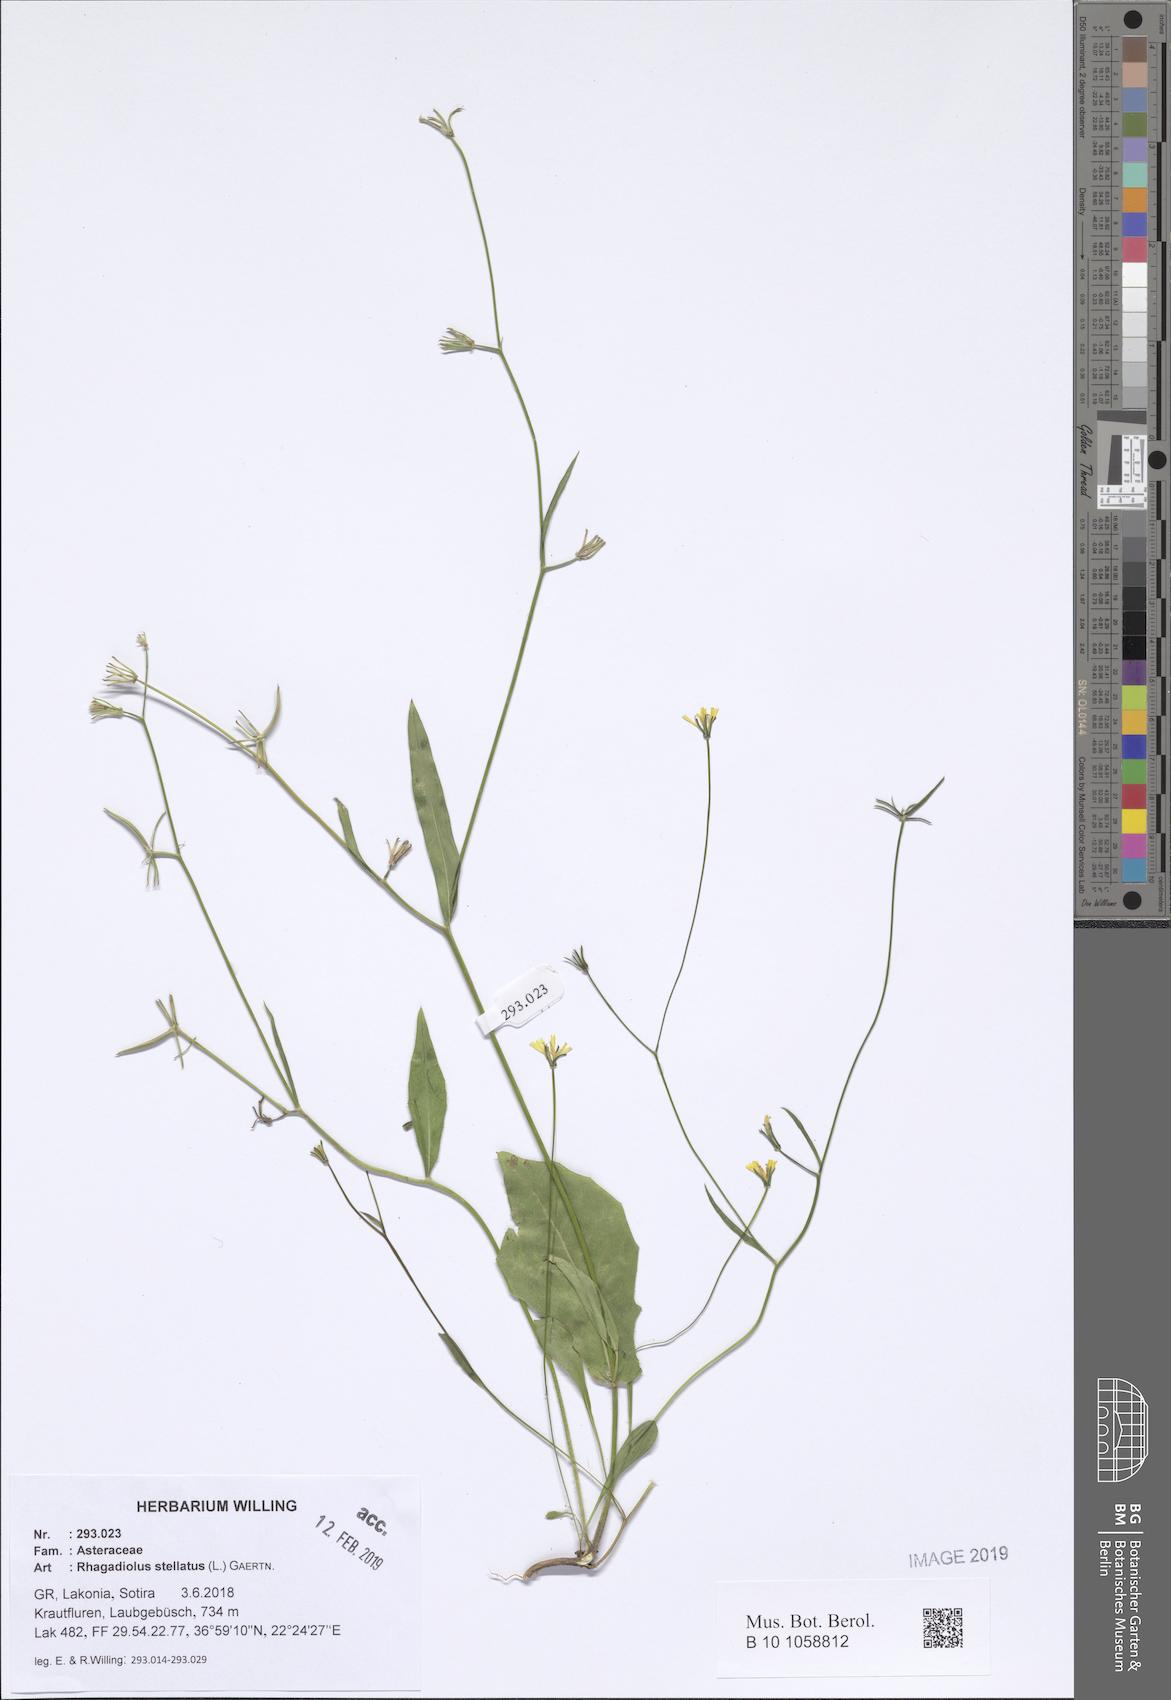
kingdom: Plantae
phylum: Tracheophyta
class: Magnoliopsida
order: Asterales
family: Asteraceae
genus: Rhagadiolus
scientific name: Rhagadiolus stellatus
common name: Star hawkbit
